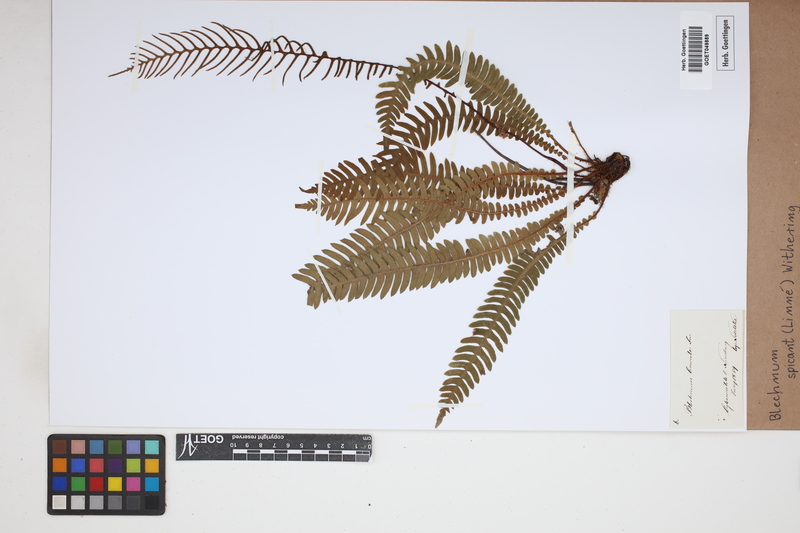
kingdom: Plantae
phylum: Tracheophyta
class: Polypodiopsida
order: Polypodiales
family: Blechnaceae
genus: Struthiopteris
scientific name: Struthiopteris spicant
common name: Deer fern
